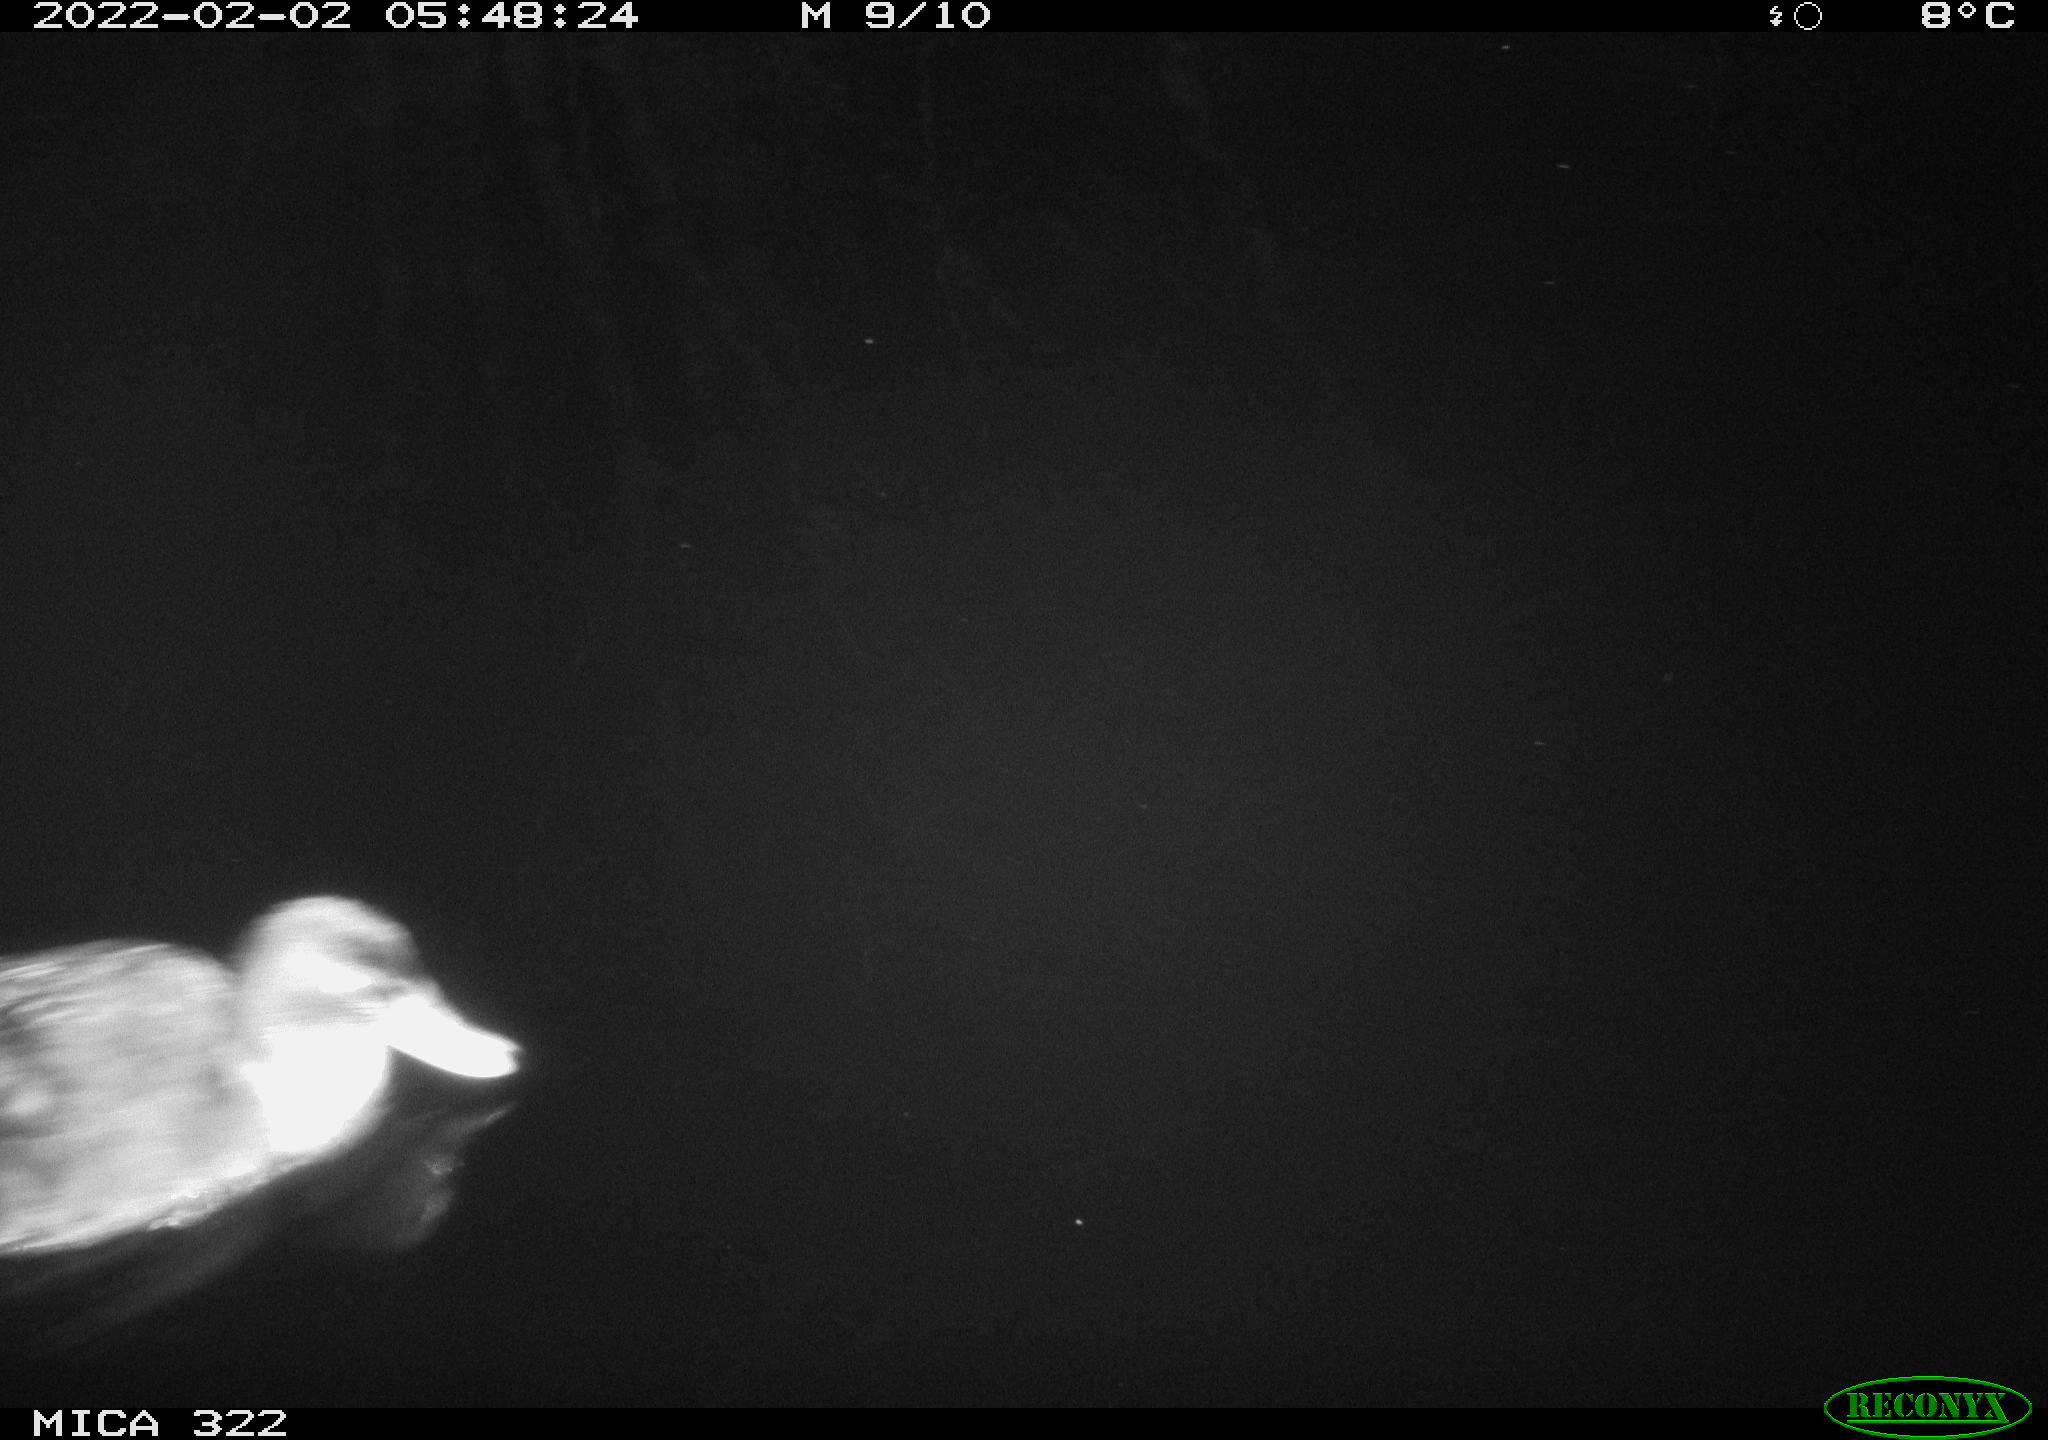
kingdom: Animalia
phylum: Chordata
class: Aves
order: Anseriformes
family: Anatidae
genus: Anas
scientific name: Anas
